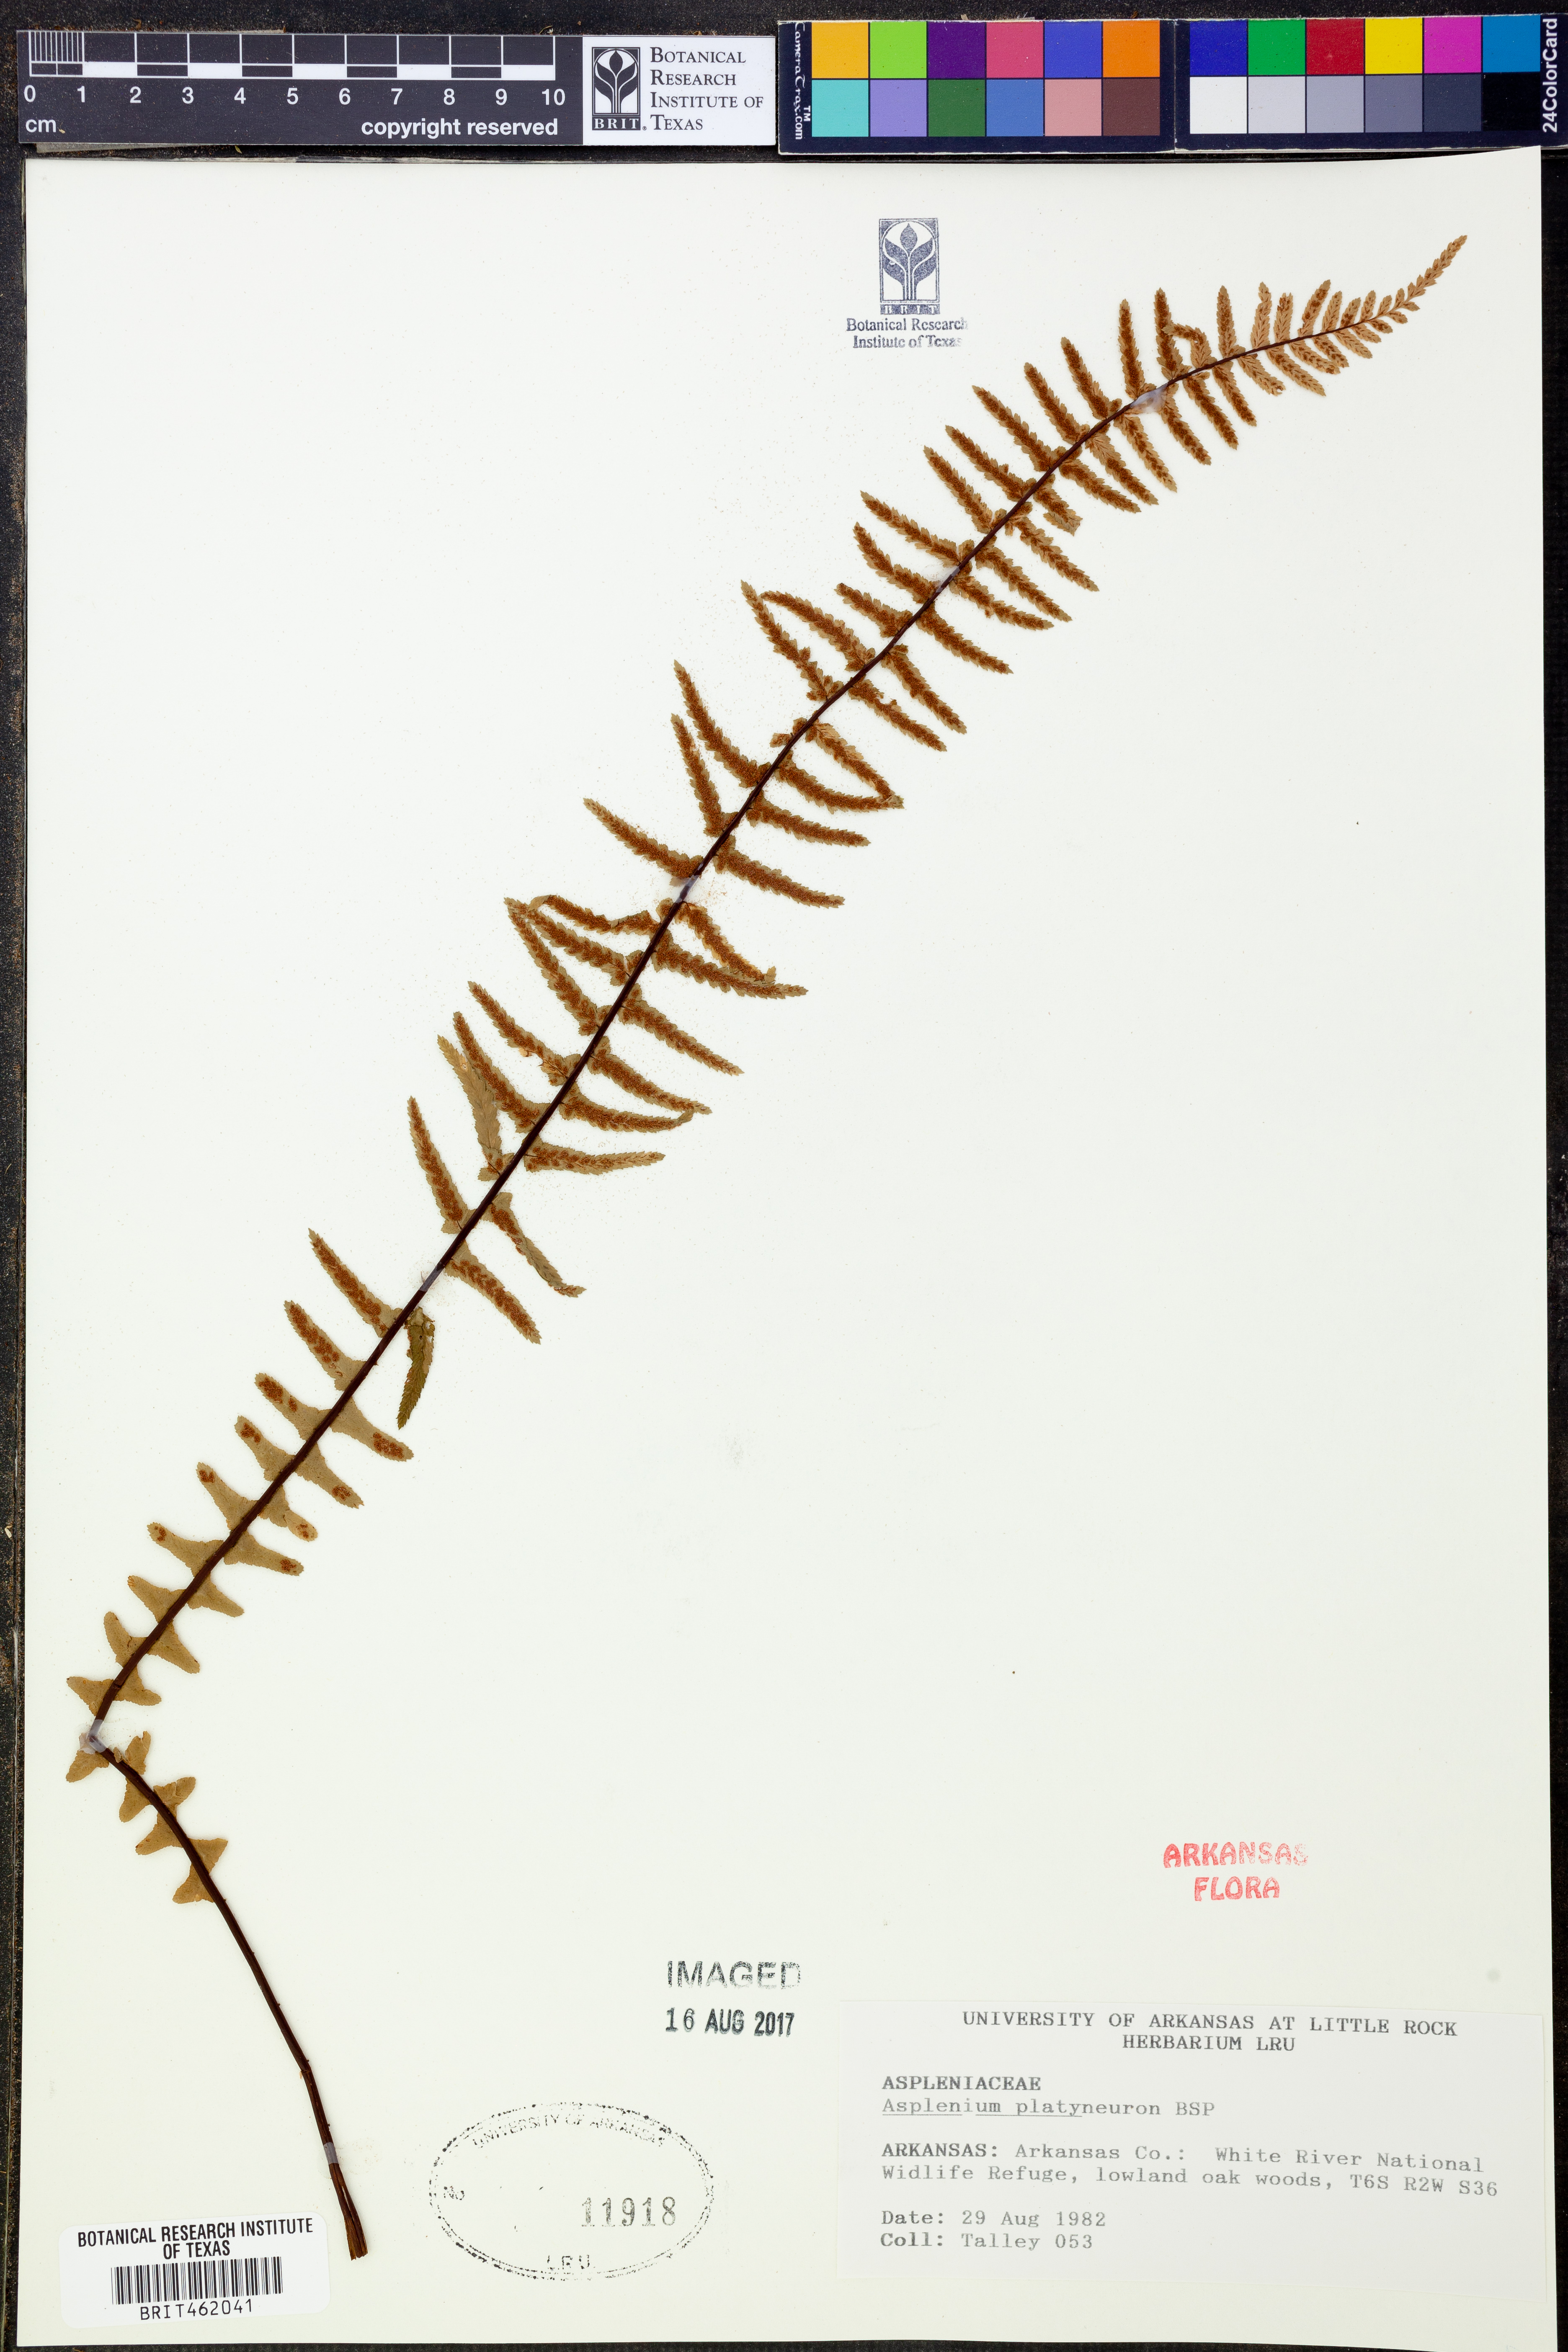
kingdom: Plantae
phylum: Tracheophyta
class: Polypodiopsida
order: Polypodiales
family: Aspleniaceae
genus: Asplenium
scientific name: Asplenium platyneuron
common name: Ebony spleenwort
